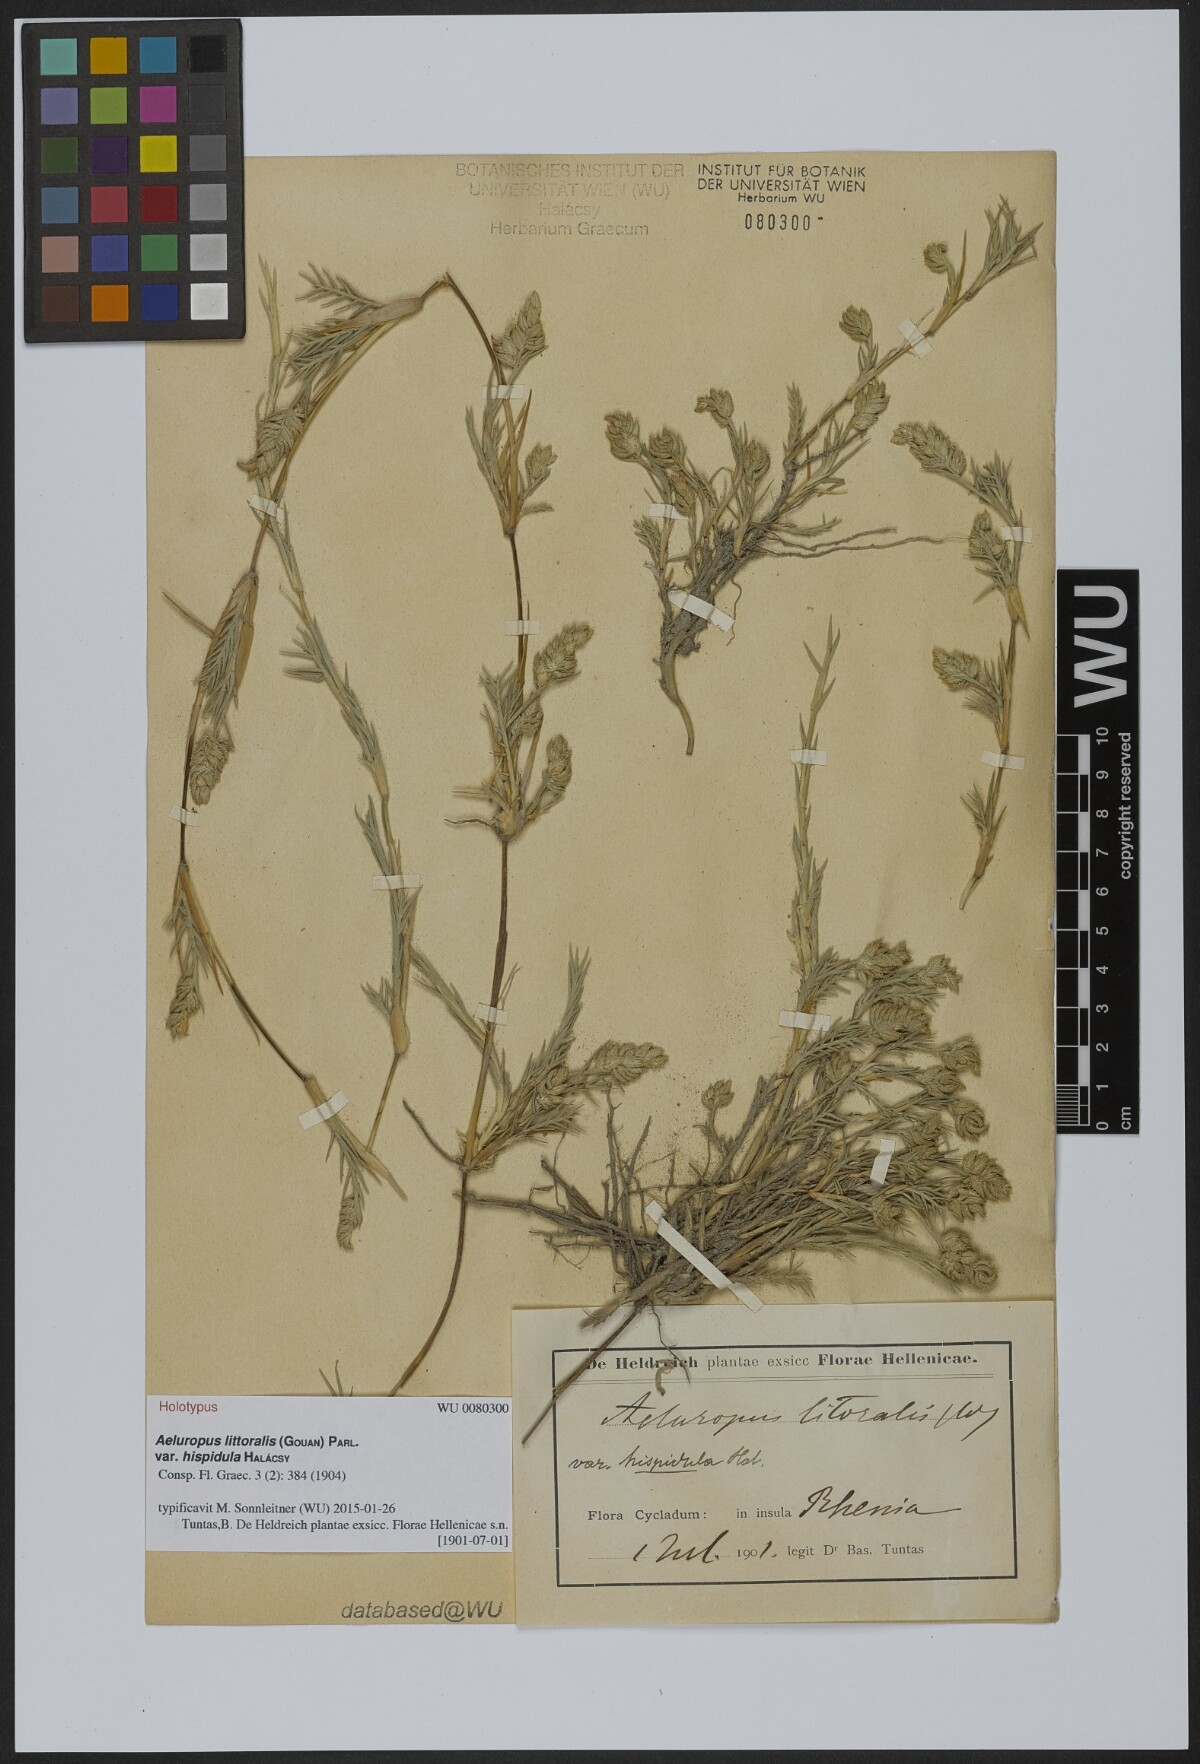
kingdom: Plantae
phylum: Tracheophyta
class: Liliopsida
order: Poales
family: Poaceae
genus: Aeluropus
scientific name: Aeluropus littoralis
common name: Indian walnut
